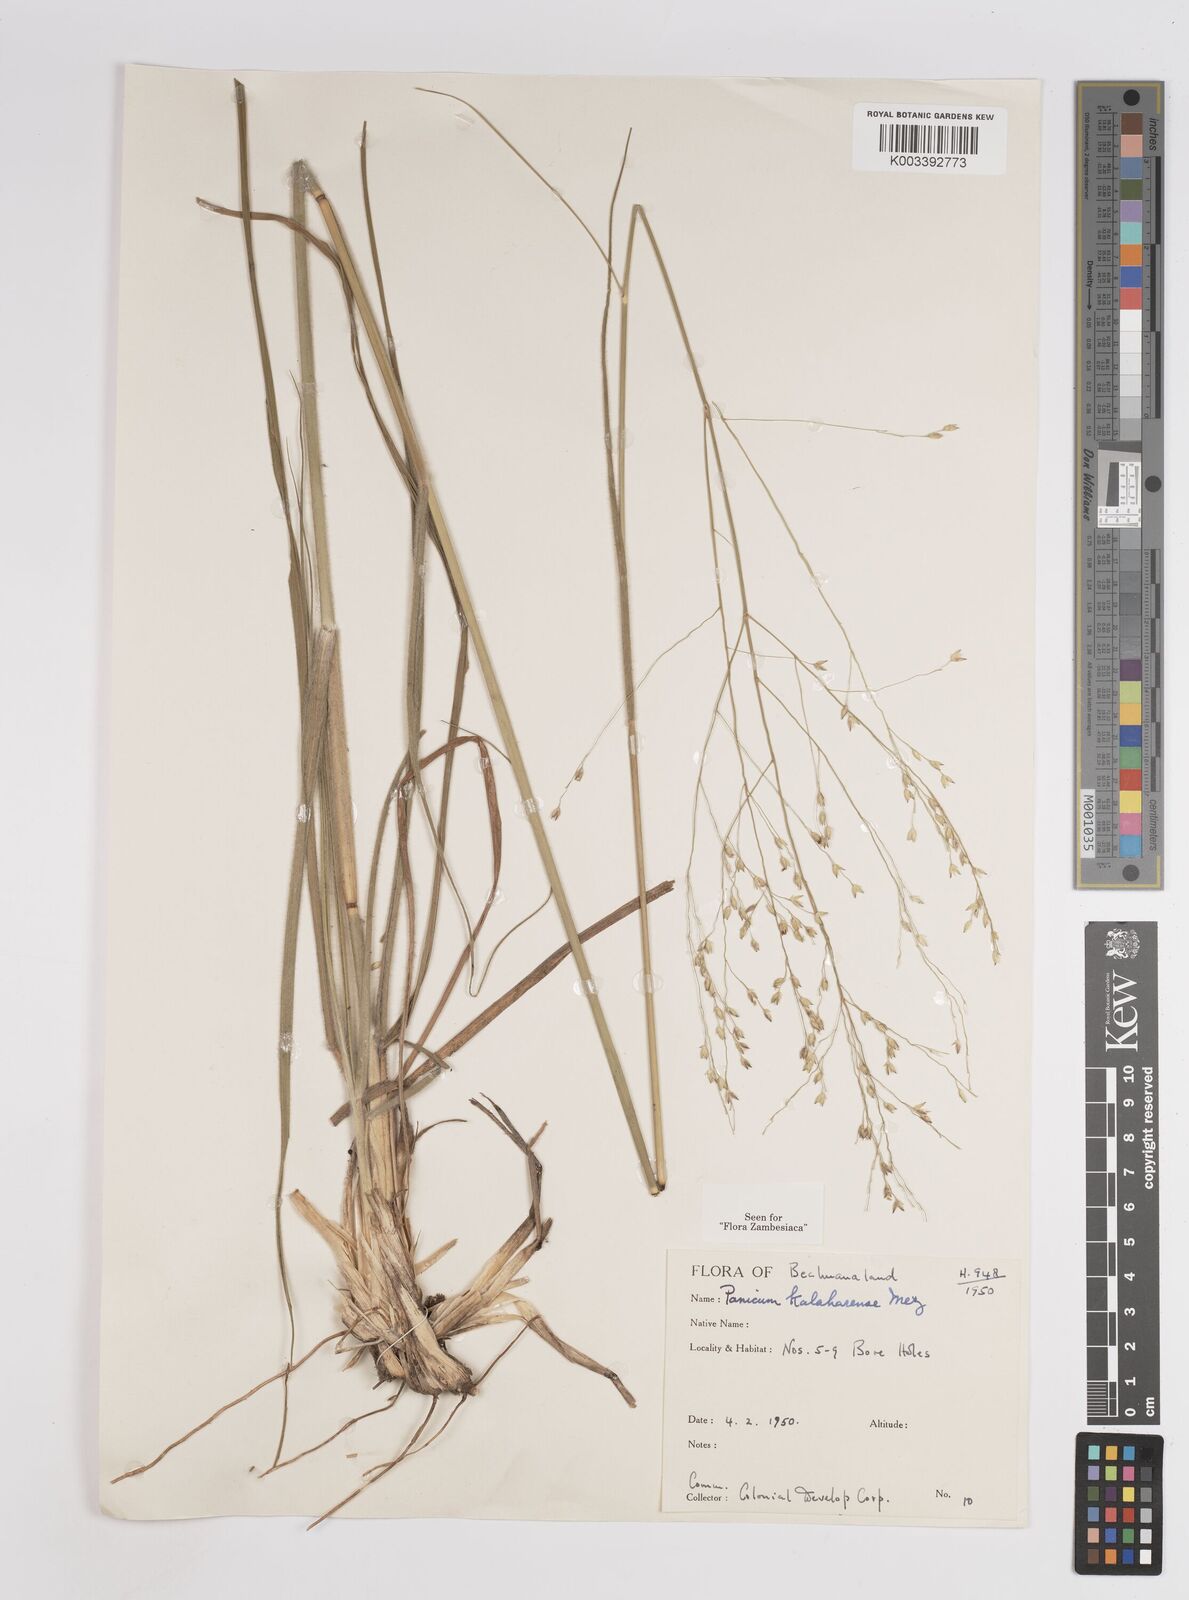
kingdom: Plantae
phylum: Tracheophyta
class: Liliopsida
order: Poales
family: Poaceae
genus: Panicum
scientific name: Panicum kalaharense
